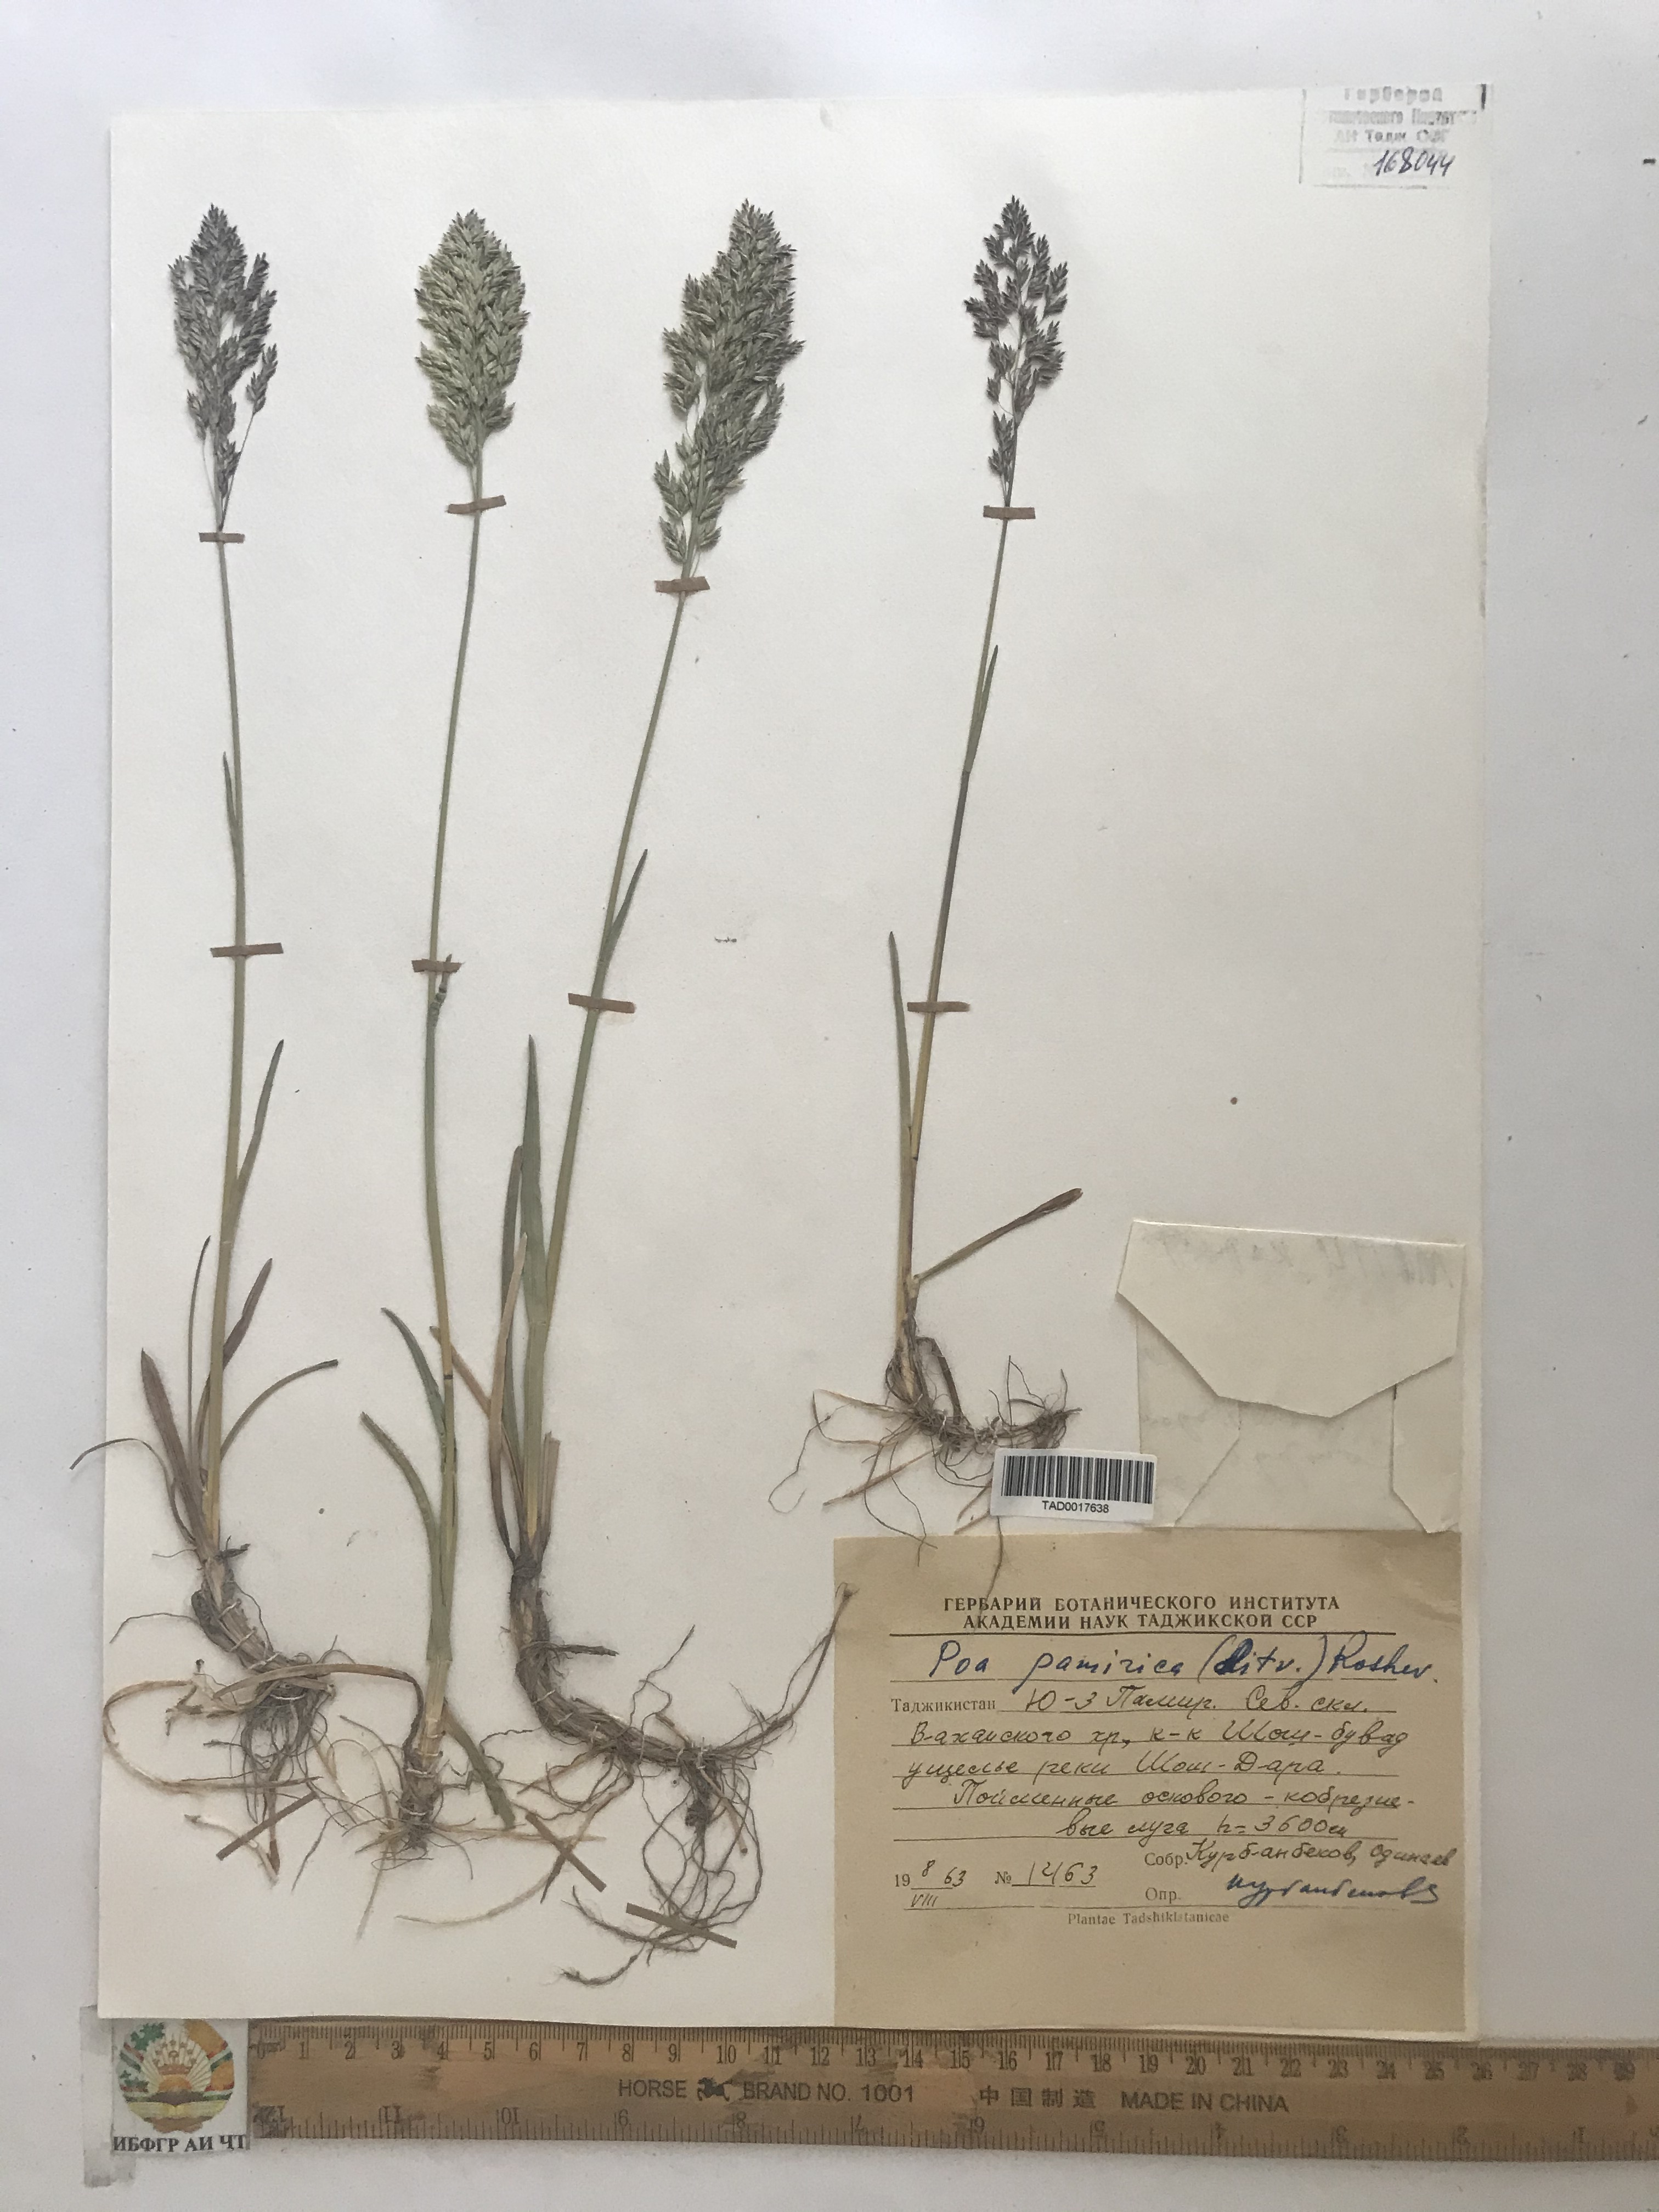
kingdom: Plantae
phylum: Tracheophyta
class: Liliopsida
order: Poales
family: Poaceae
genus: Poa
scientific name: Poa tianschanica
